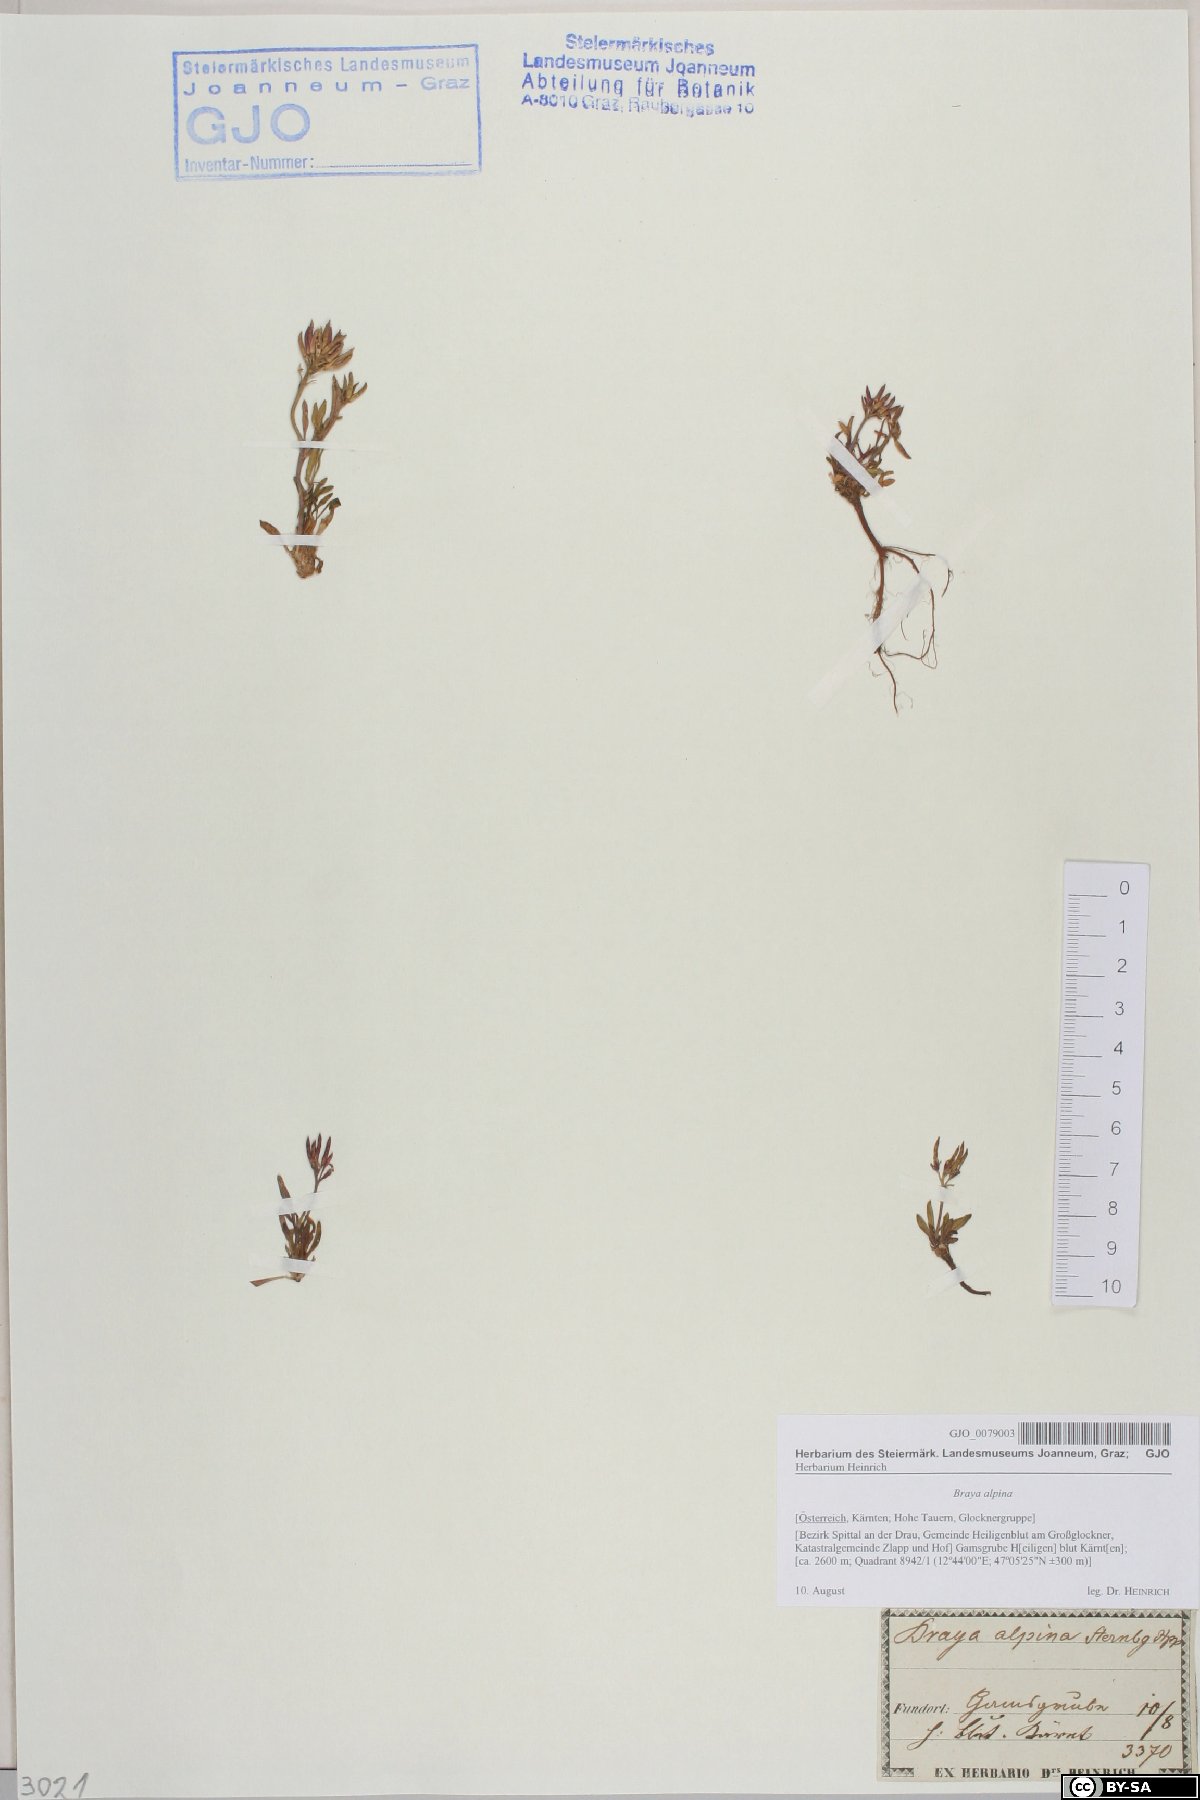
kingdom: Plantae
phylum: Tracheophyta
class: Magnoliopsida
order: Brassicales
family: Brassicaceae
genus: Braya
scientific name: Braya alpina
